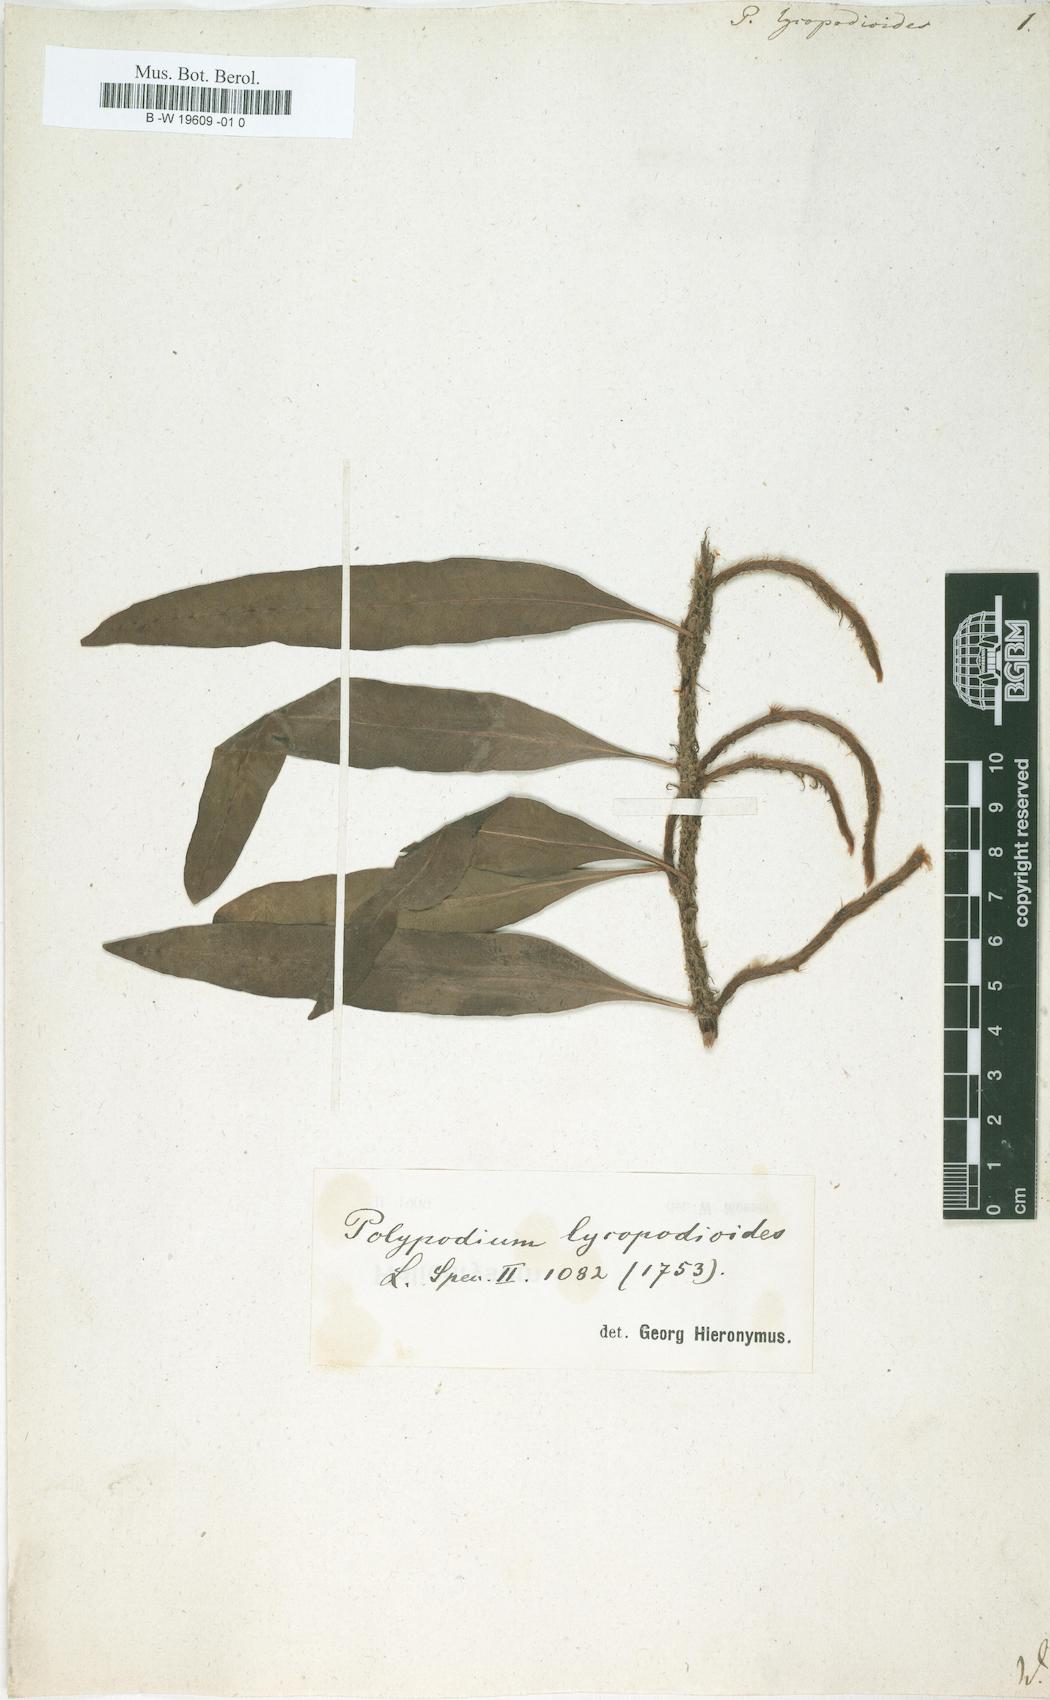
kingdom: Plantae
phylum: Tracheophyta
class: Polypodiopsida
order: Polypodiales
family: Polypodiaceae
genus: Microgramma
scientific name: Microgramma lycopodioides
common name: Bastard catclaw
